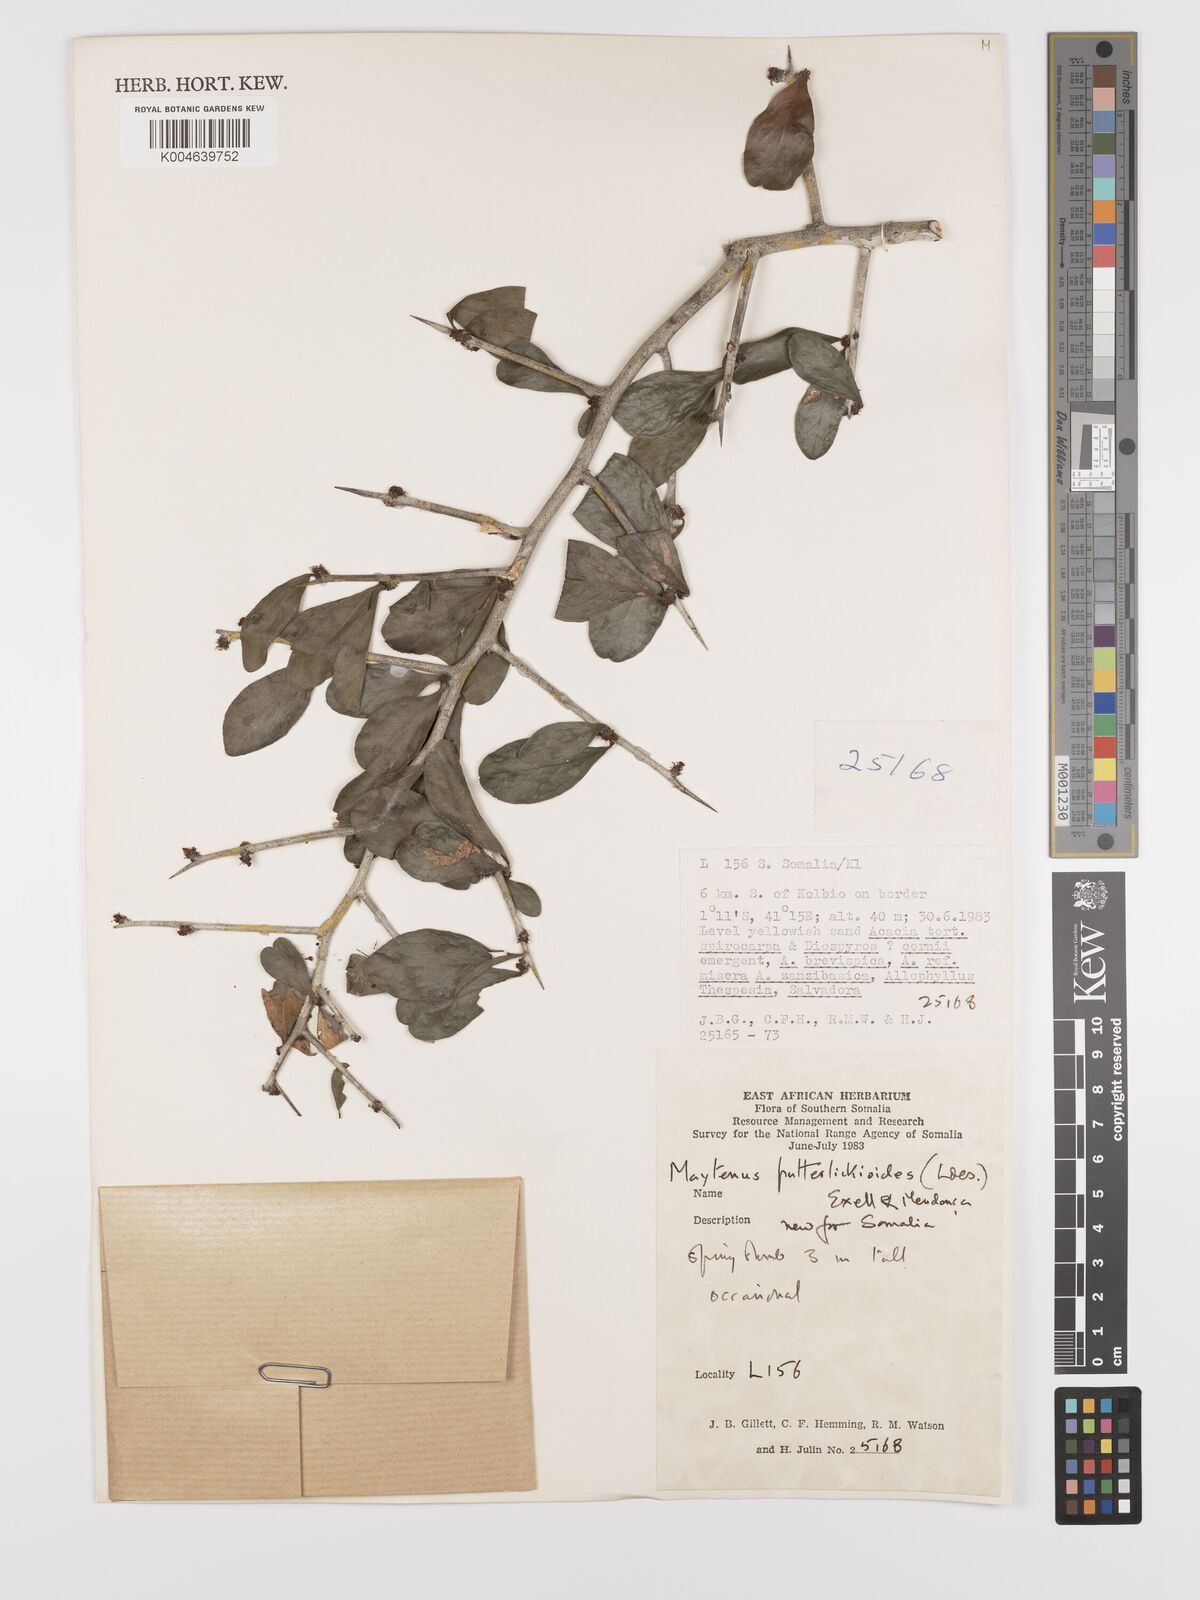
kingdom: Plantae
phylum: Tracheophyta
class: Magnoliopsida
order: Celastrales
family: Celastraceae
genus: Gymnosporia
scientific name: Gymnosporia putterlickioides
